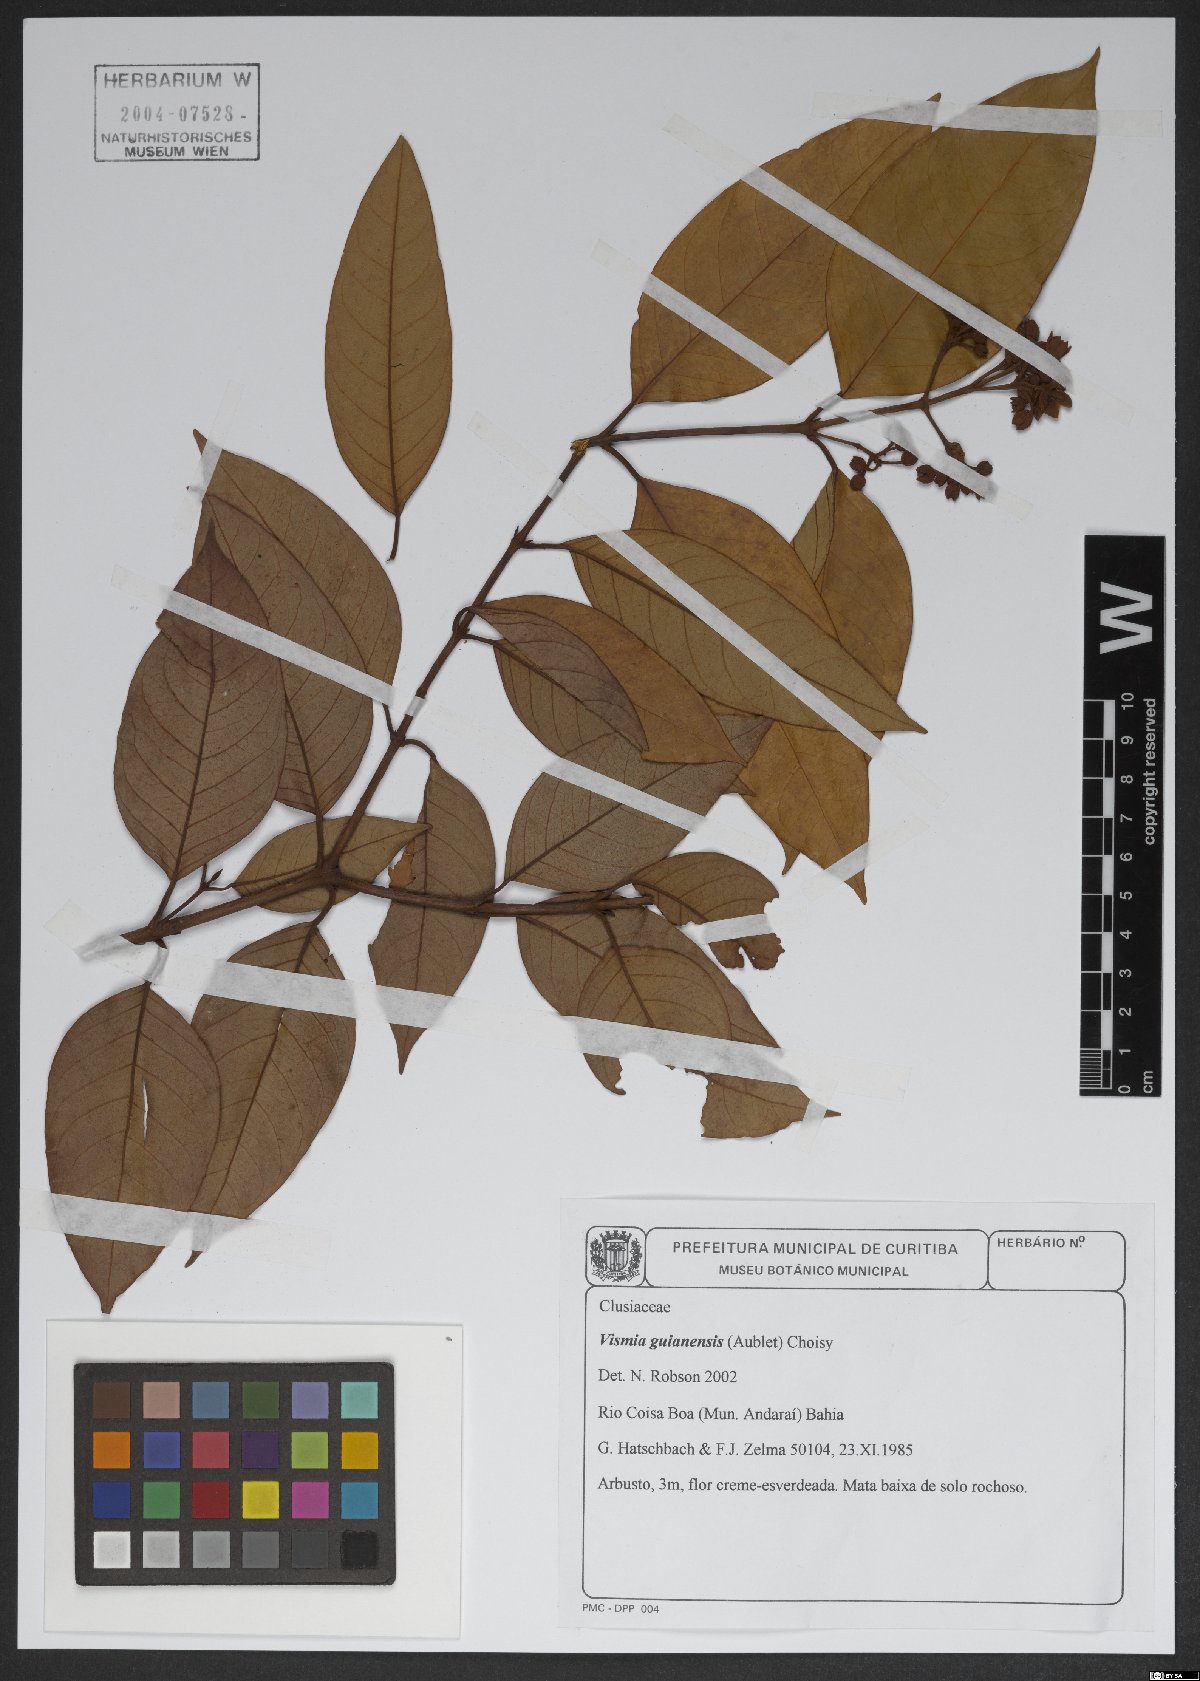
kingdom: Plantae
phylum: Tracheophyta
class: Magnoliopsida
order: Malpighiales
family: Hypericaceae
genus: Vismia
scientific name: Vismia guianensis
